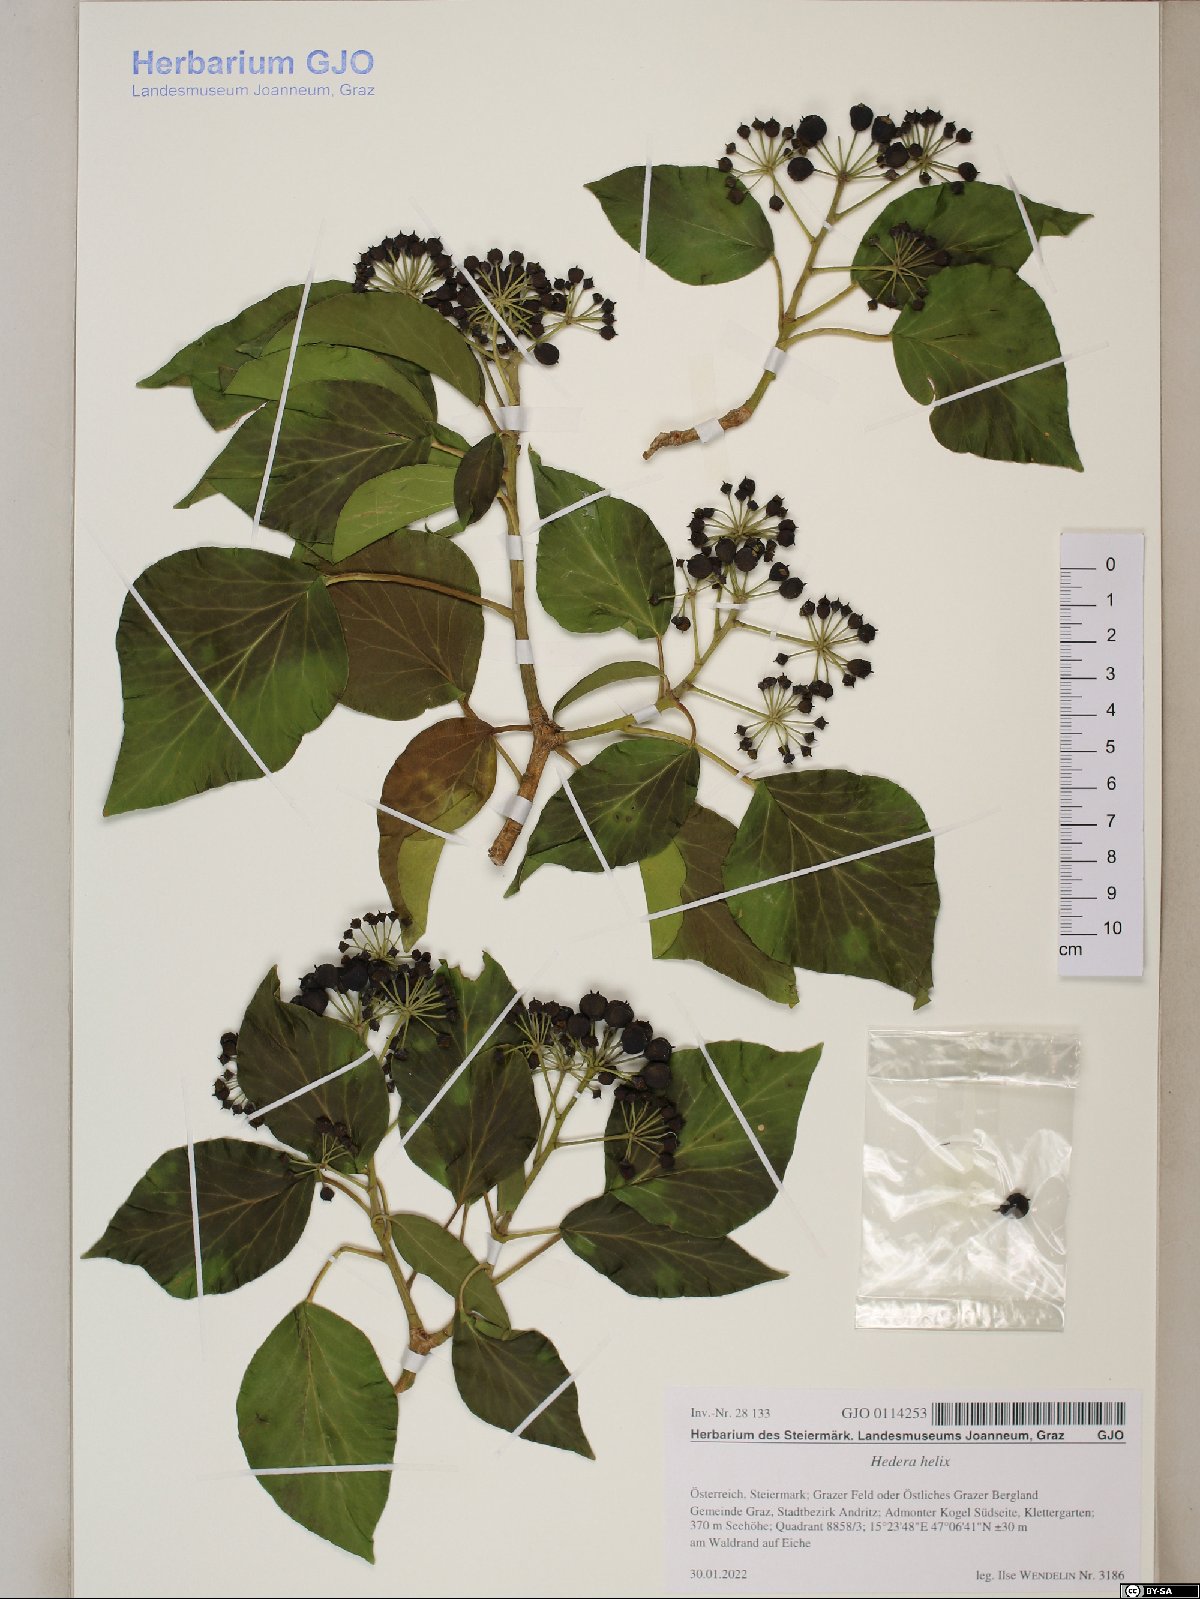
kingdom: Plantae
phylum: Tracheophyta
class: Magnoliopsida
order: Apiales
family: Araliaceae
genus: Hedera
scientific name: Hedera helix
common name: Ivy
